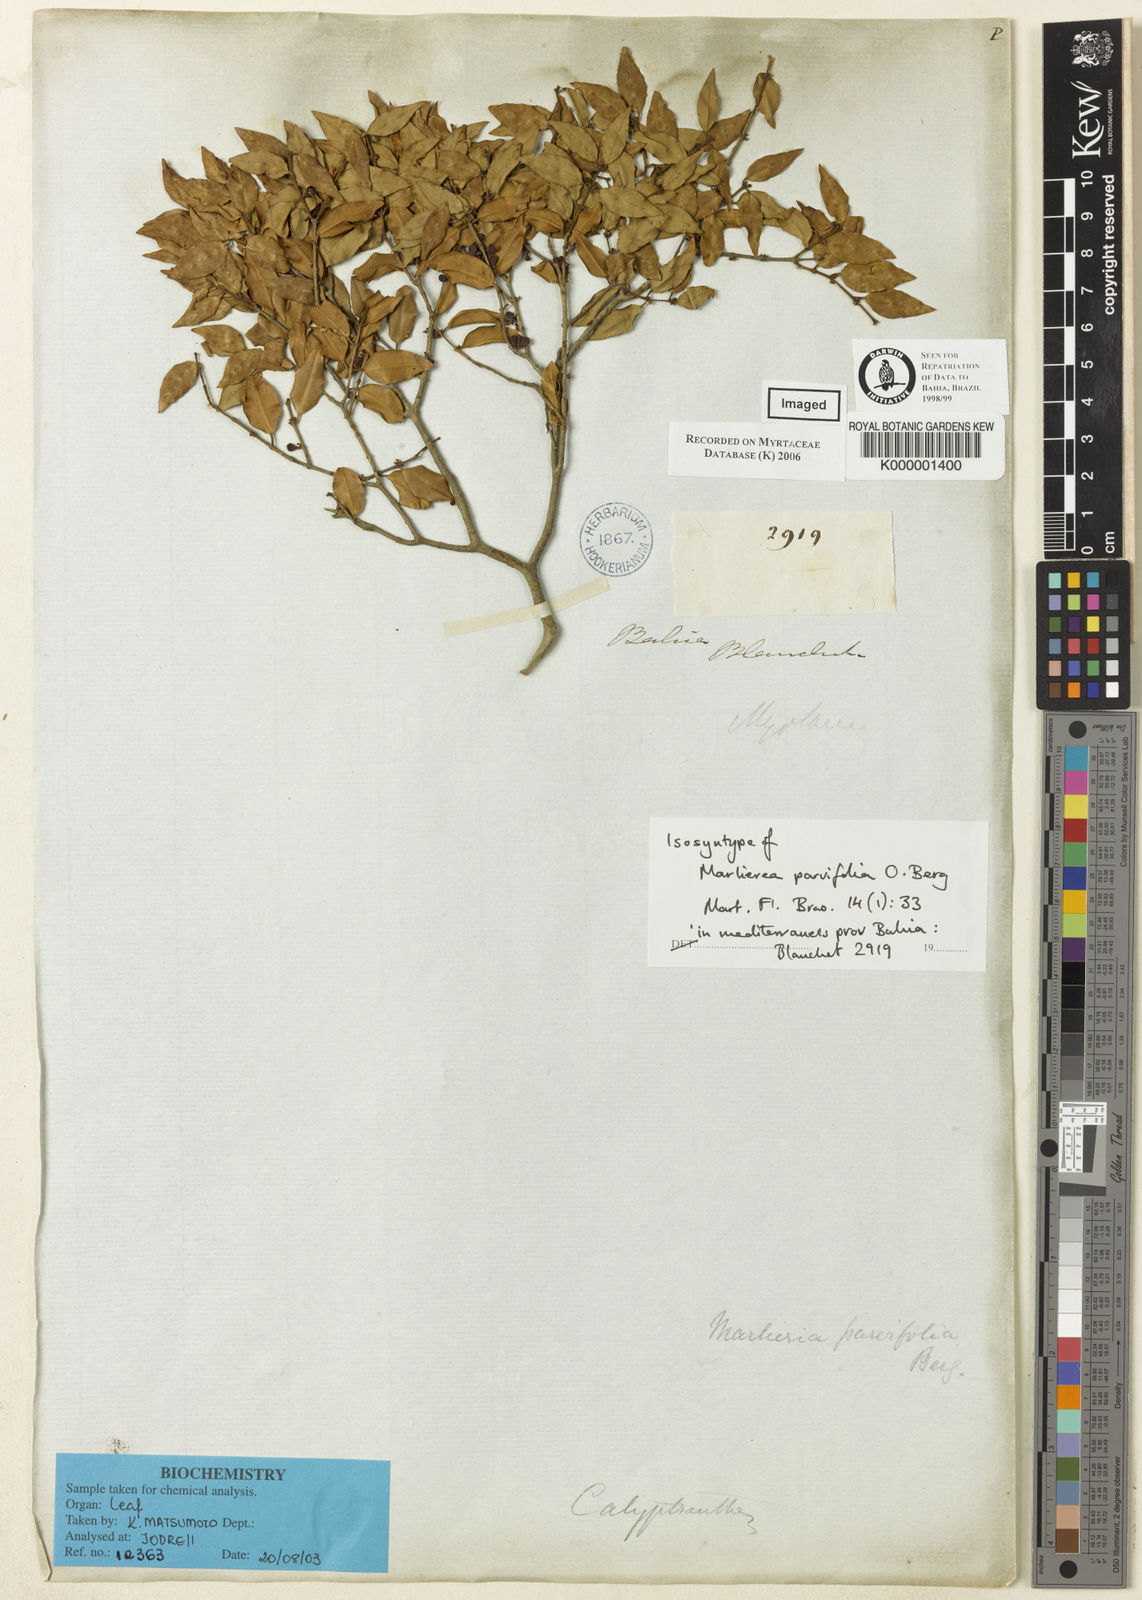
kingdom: Plantae
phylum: Tracheophyta
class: Magnoliopsida
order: Myrtales
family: Myrtaceae
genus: Plinia
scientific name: Plinia parvifolia
